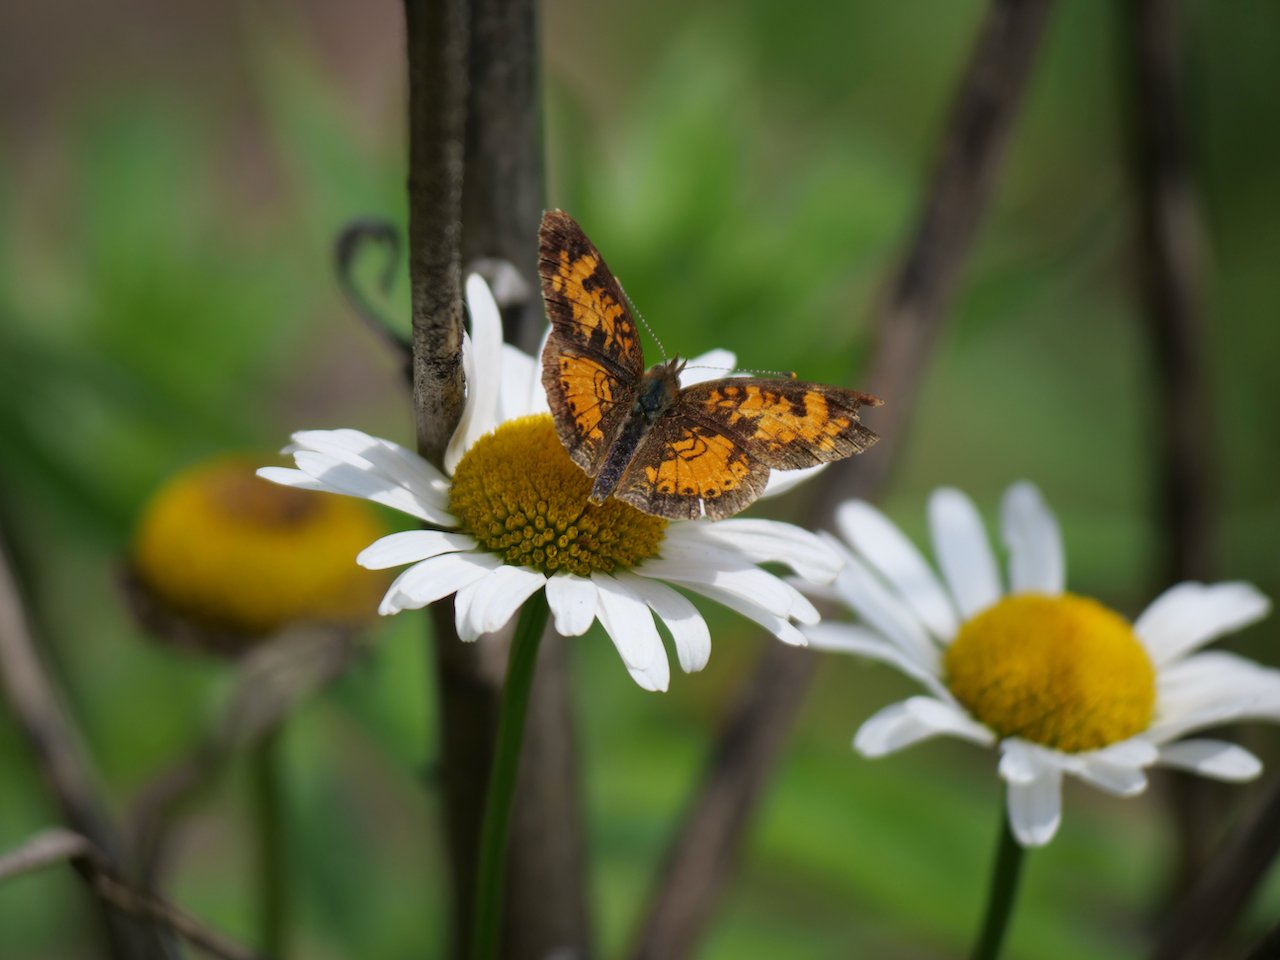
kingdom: Animalia
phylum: Arthropoda
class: Insecta
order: Lepidoptera
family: Nymphalidae
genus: Phyciodes
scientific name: Phyciodes tharos
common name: Northern Crescent
